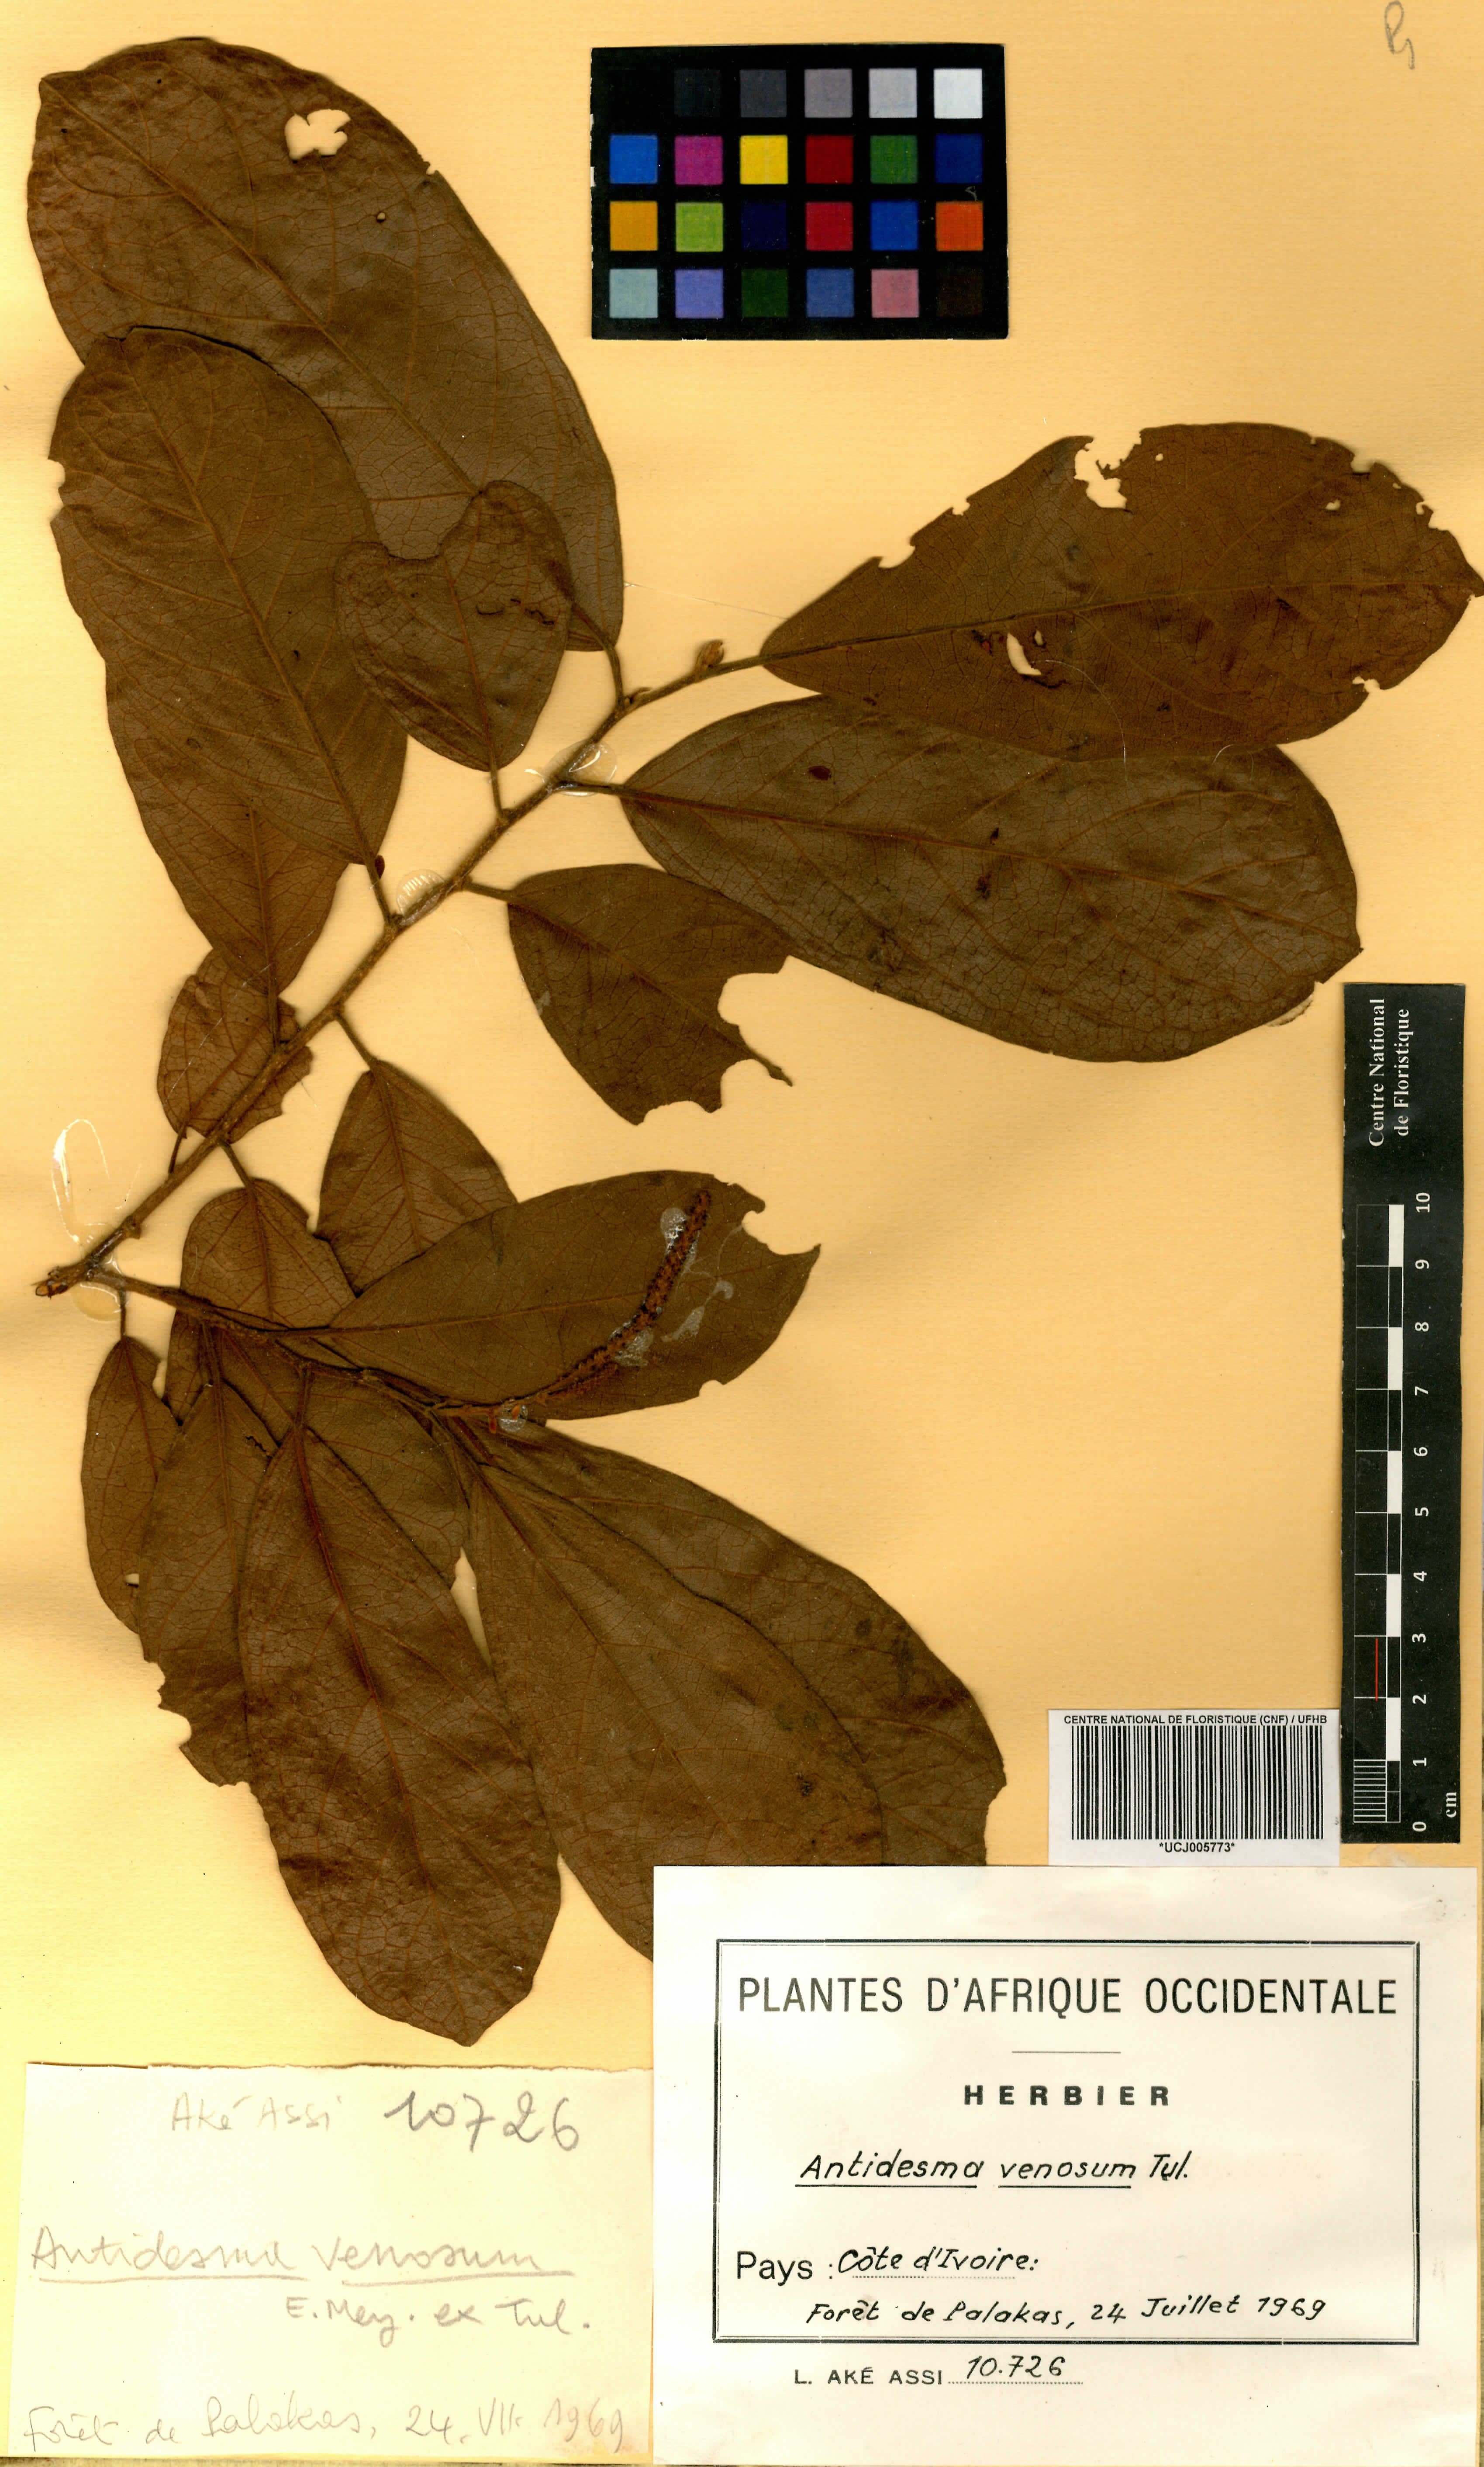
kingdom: Plantae
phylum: Tracheophyta
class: Magnoliopsida
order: Malpighiales
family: Phyllanthaceae
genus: Antidesma
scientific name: Antidesma venosum
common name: Tassel-berry
